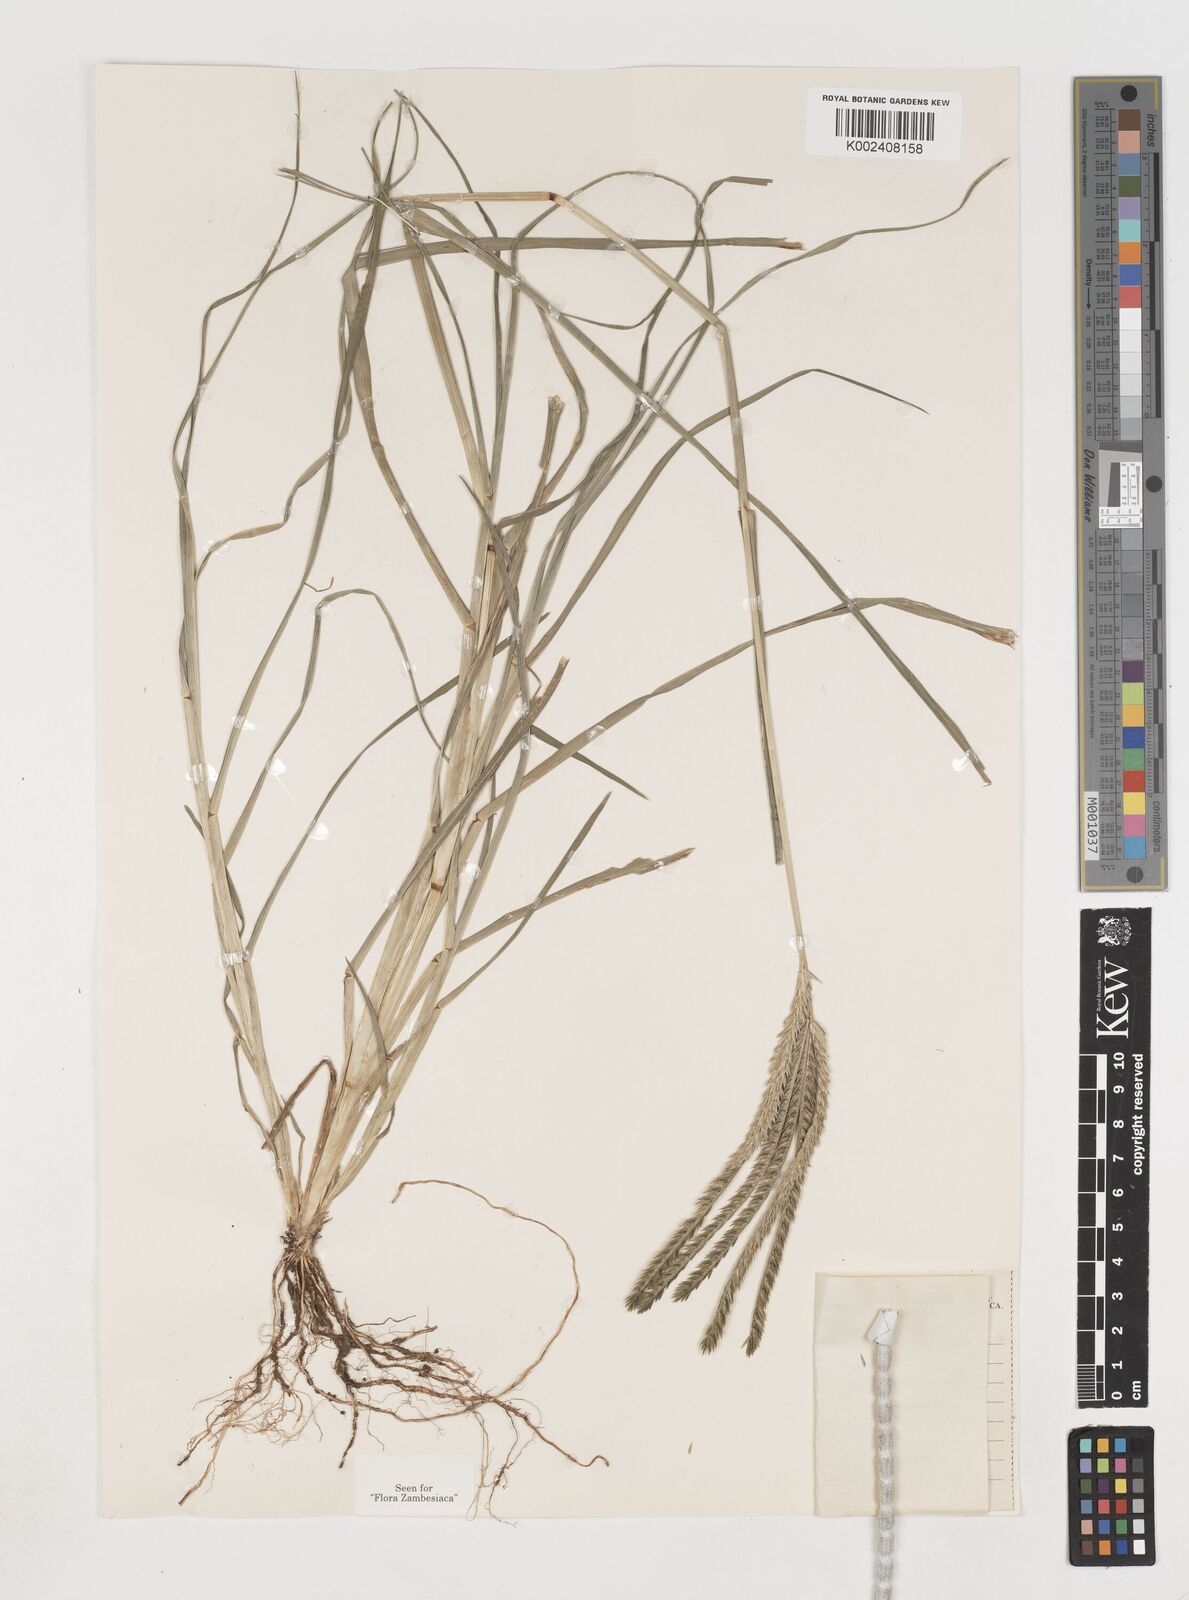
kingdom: Plantae
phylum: Tracheophyta
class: Liliopsida
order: Poales
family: Poaceae
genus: Eleusine
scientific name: Eleusine africana
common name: Wild african finger millet
